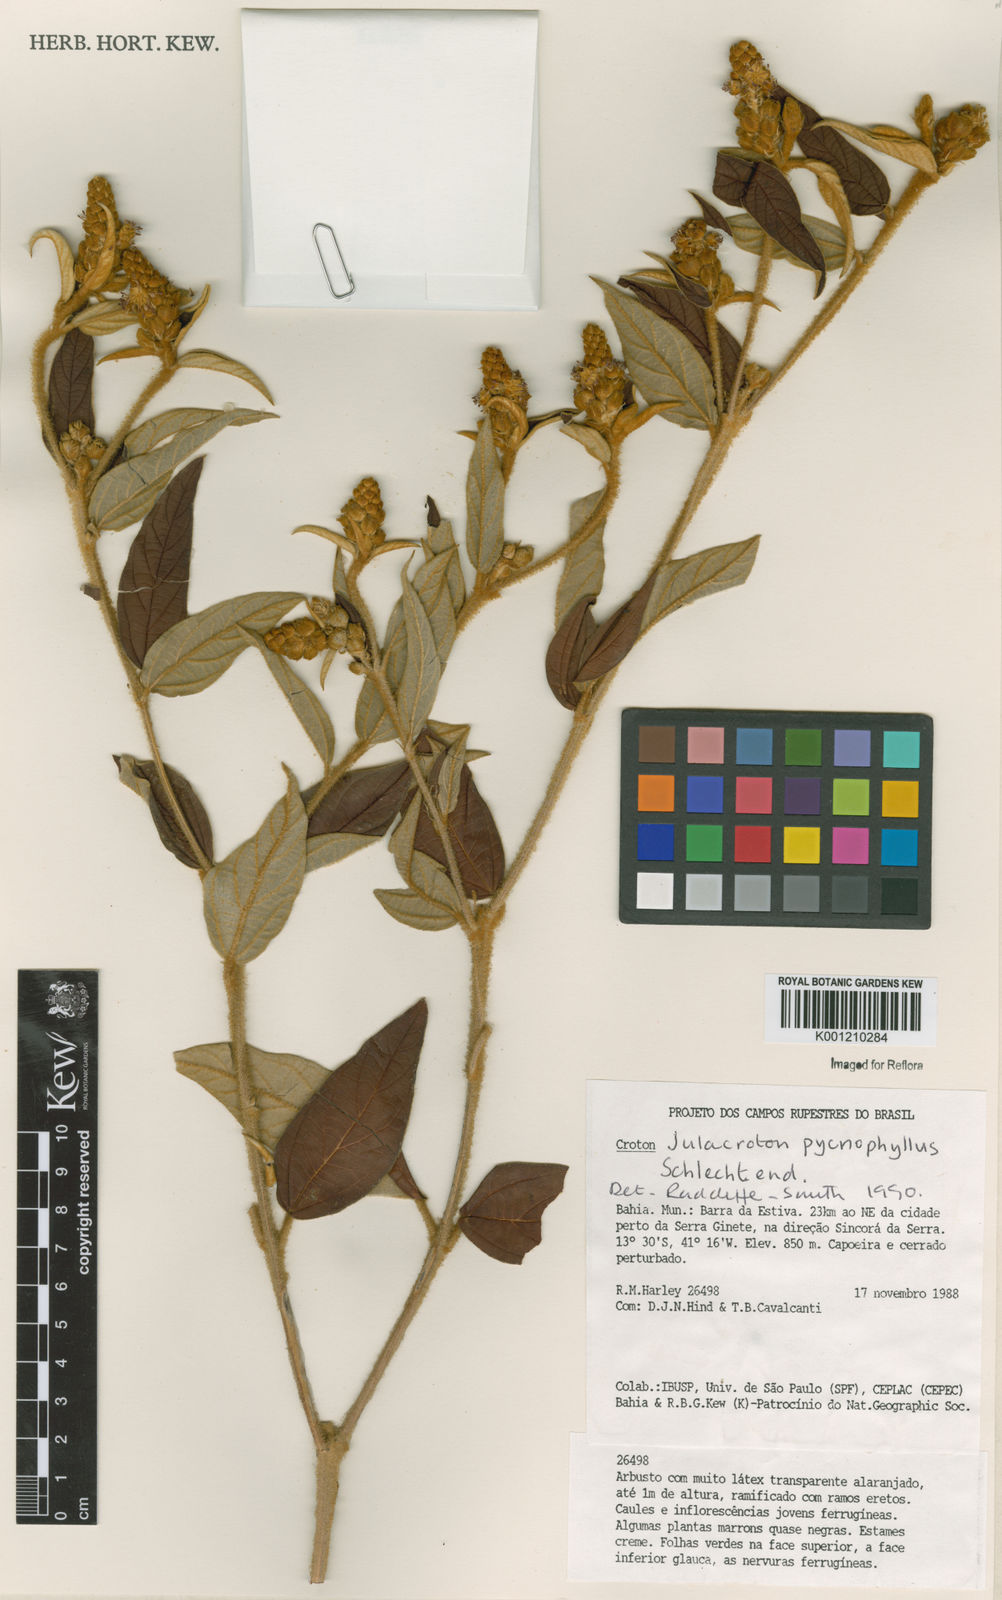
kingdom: Plantae
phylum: Tracheophyta
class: Magnoliopsida
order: Malpighiales
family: Euphorbiaceae
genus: Croton
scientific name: Croton salzmannii
